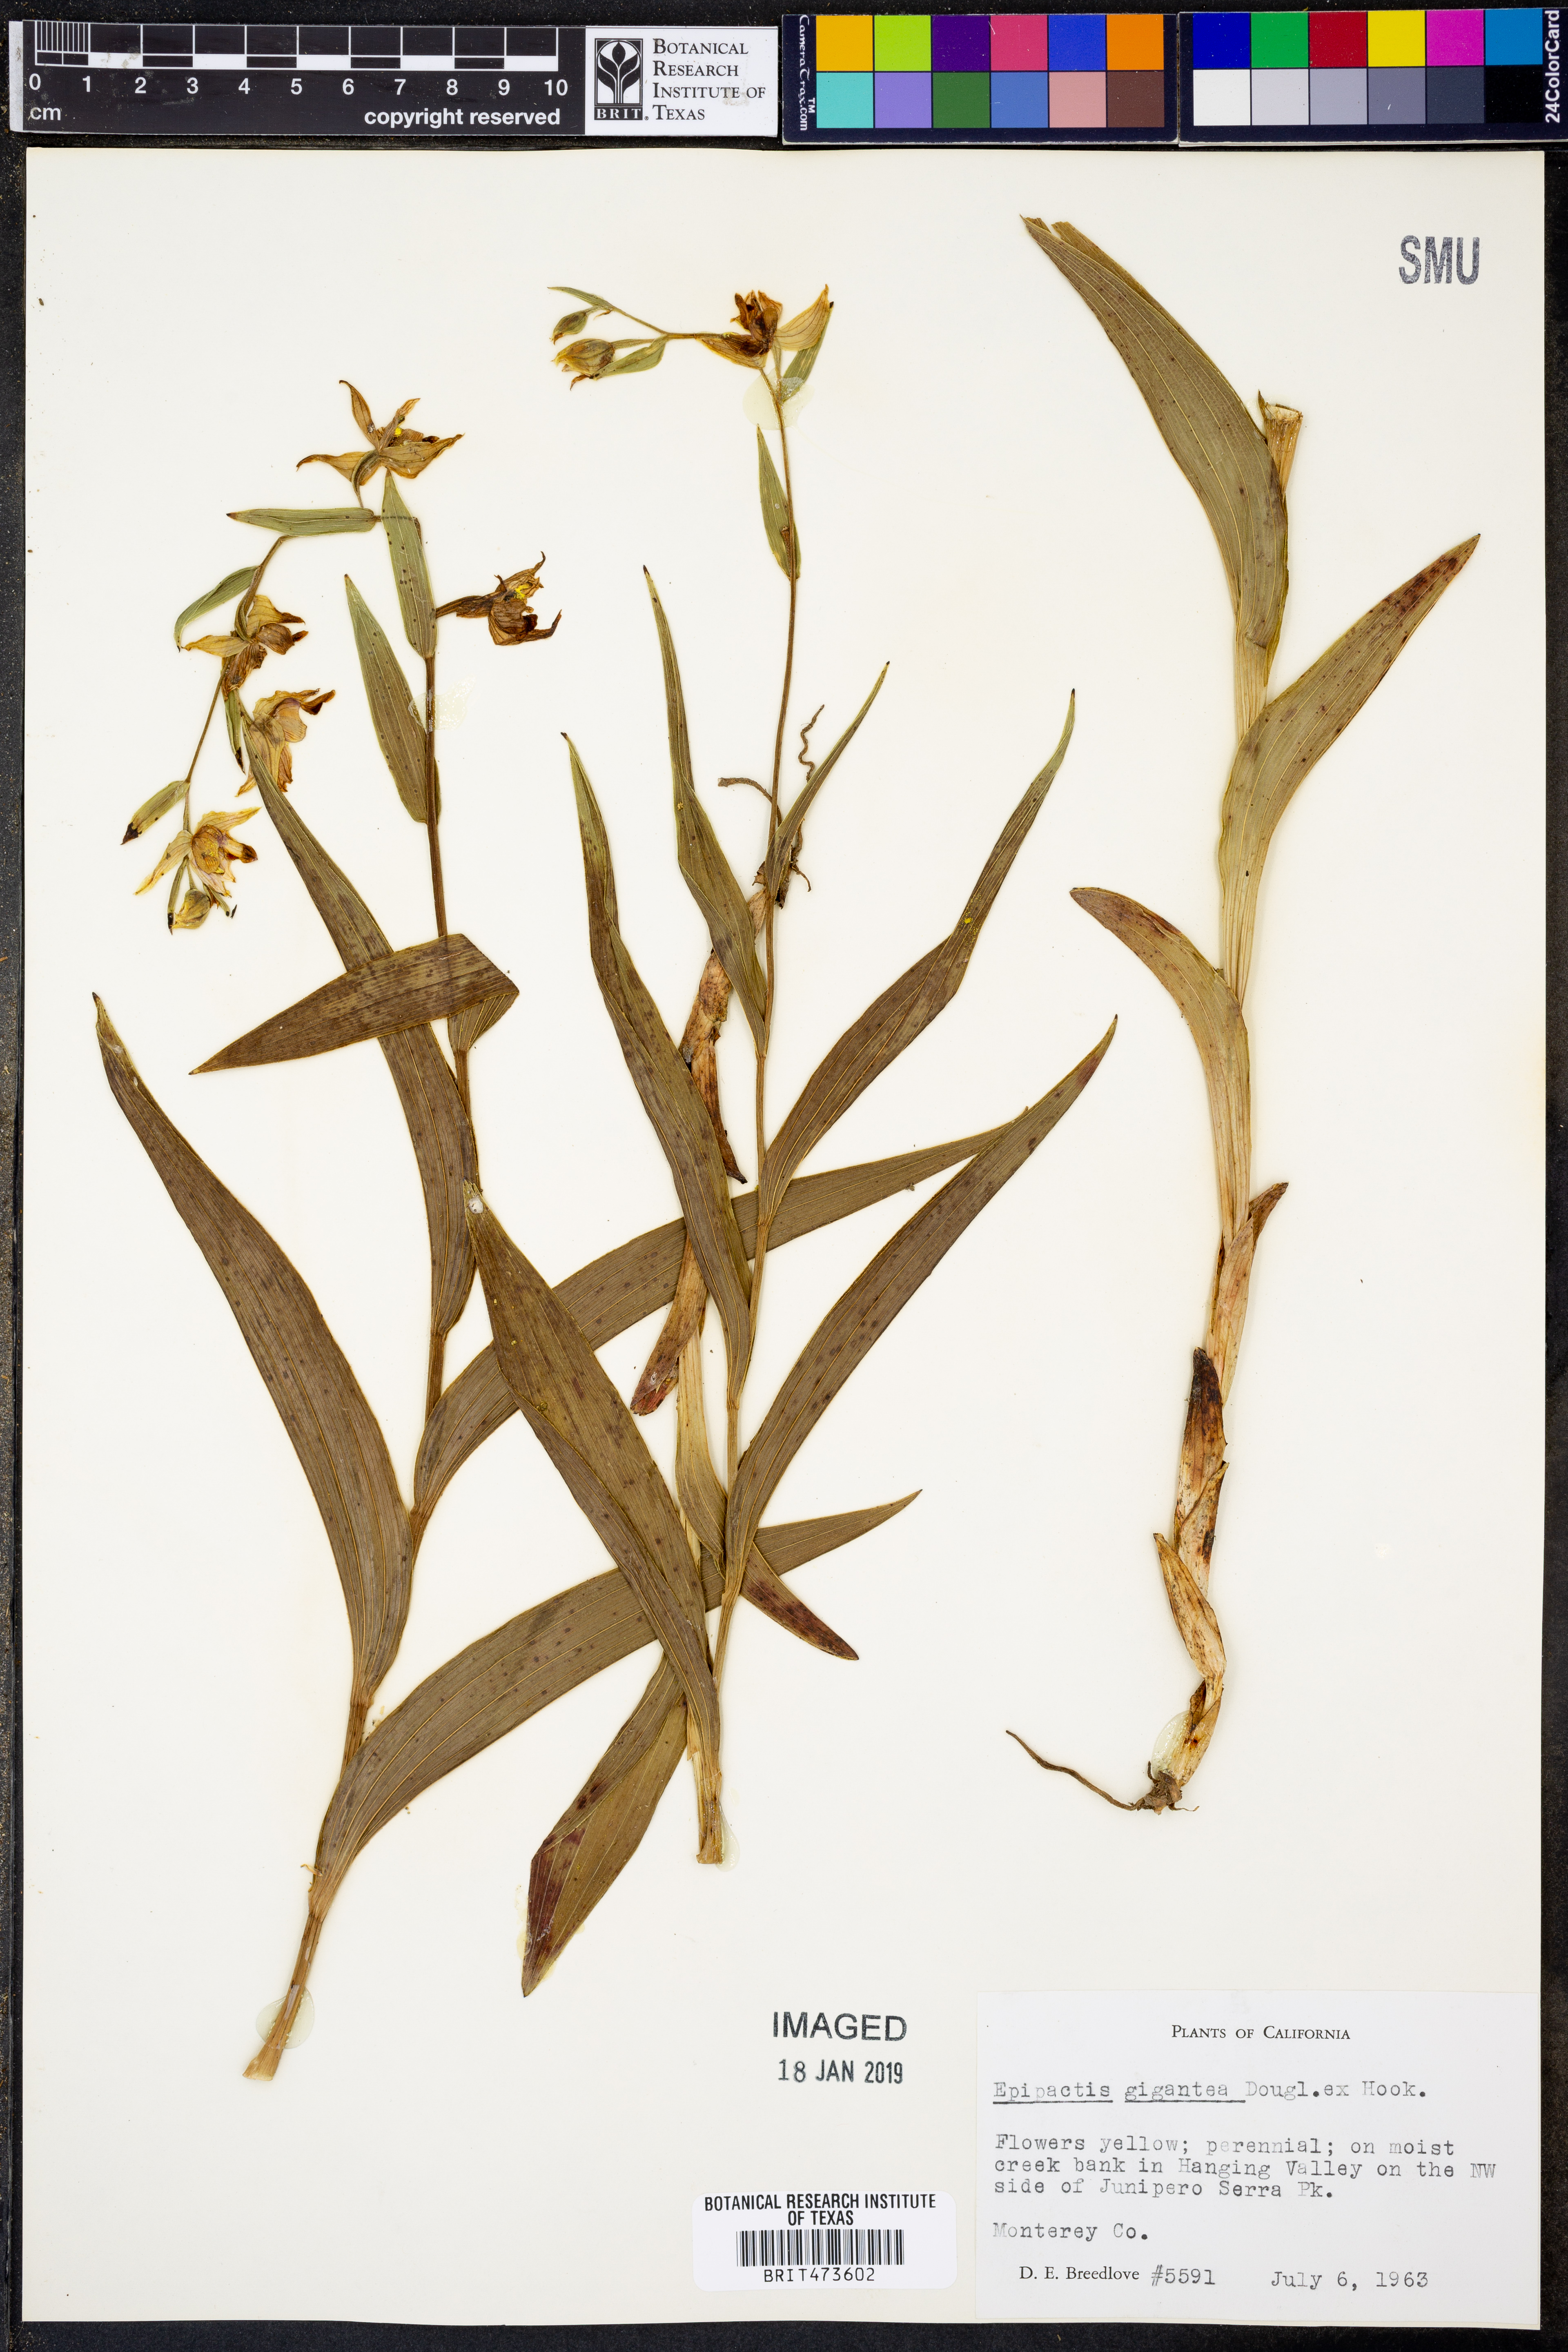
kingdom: Plantae
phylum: Tracheophyta
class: Liliopsida
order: Asparagales
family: Orchidaceae
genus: Epipactis
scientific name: Epipactis gigantea
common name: Chatterbox
